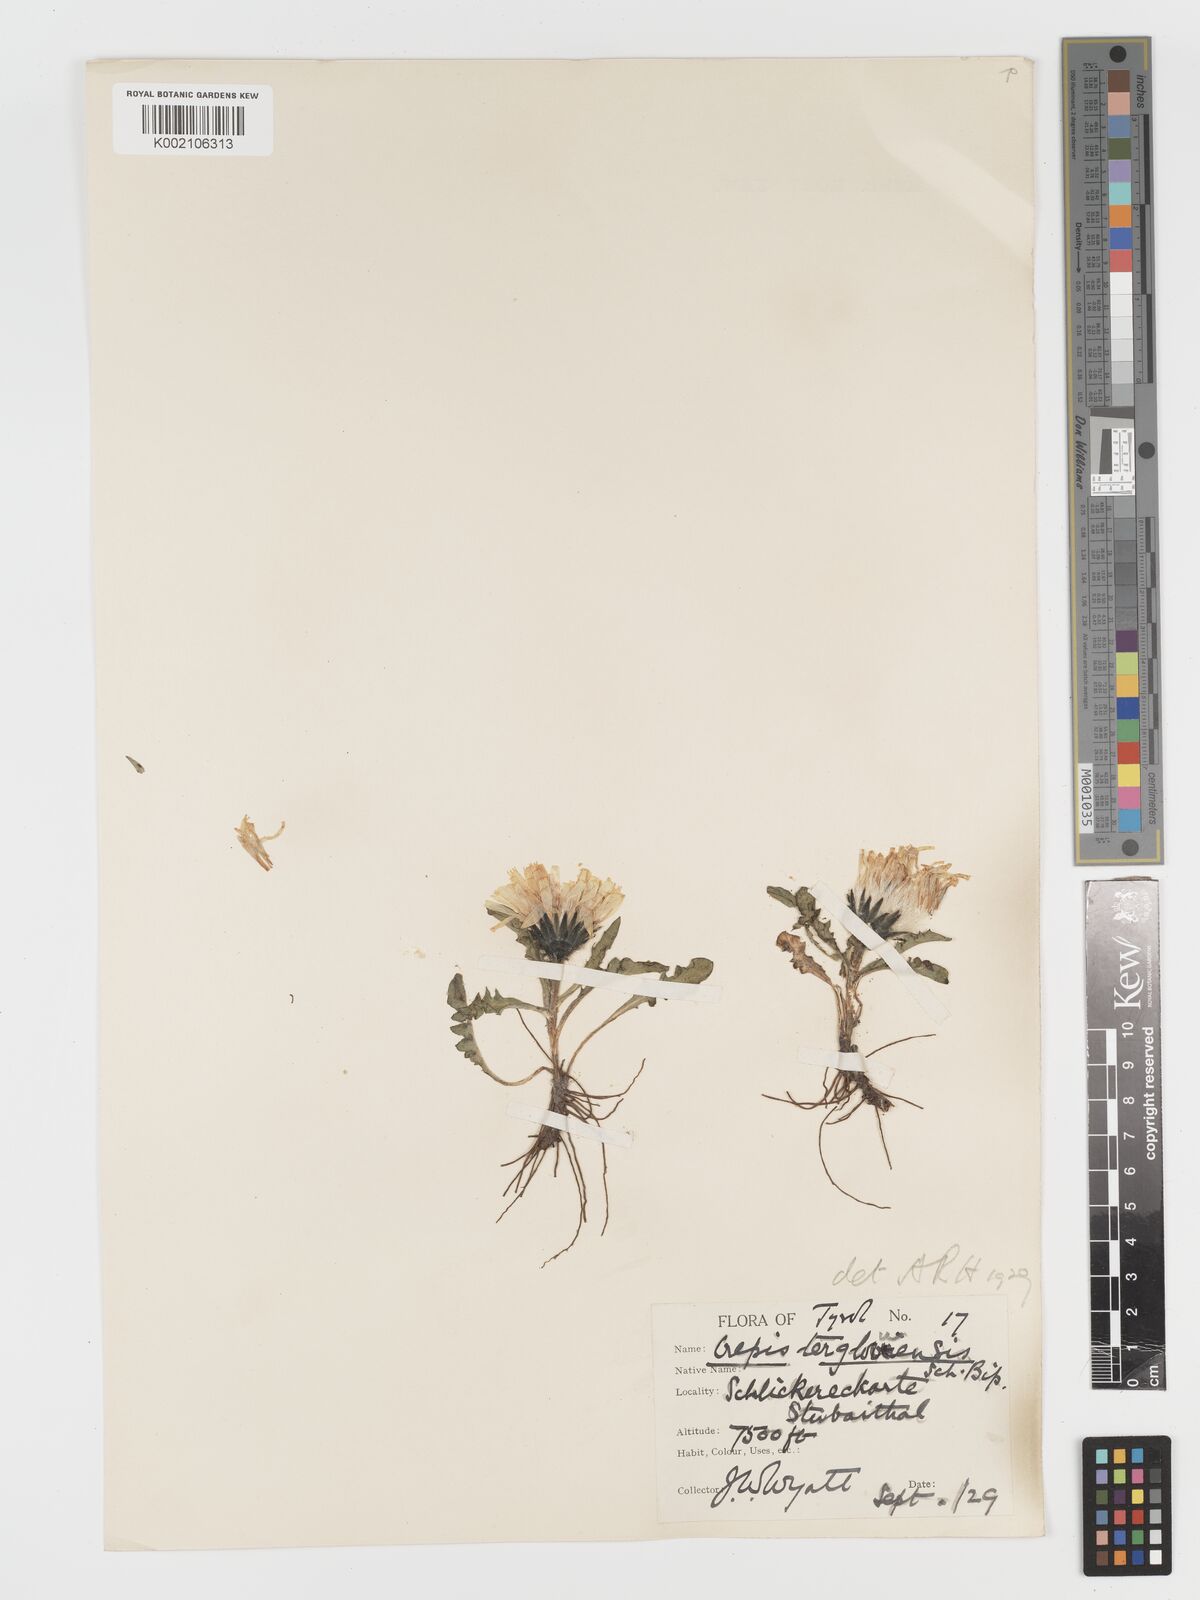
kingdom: Plantae
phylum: Tracheophyta
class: Magnoliopsida
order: Asterales
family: Asteraceae
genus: Crepis
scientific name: Crepis terglouensis
